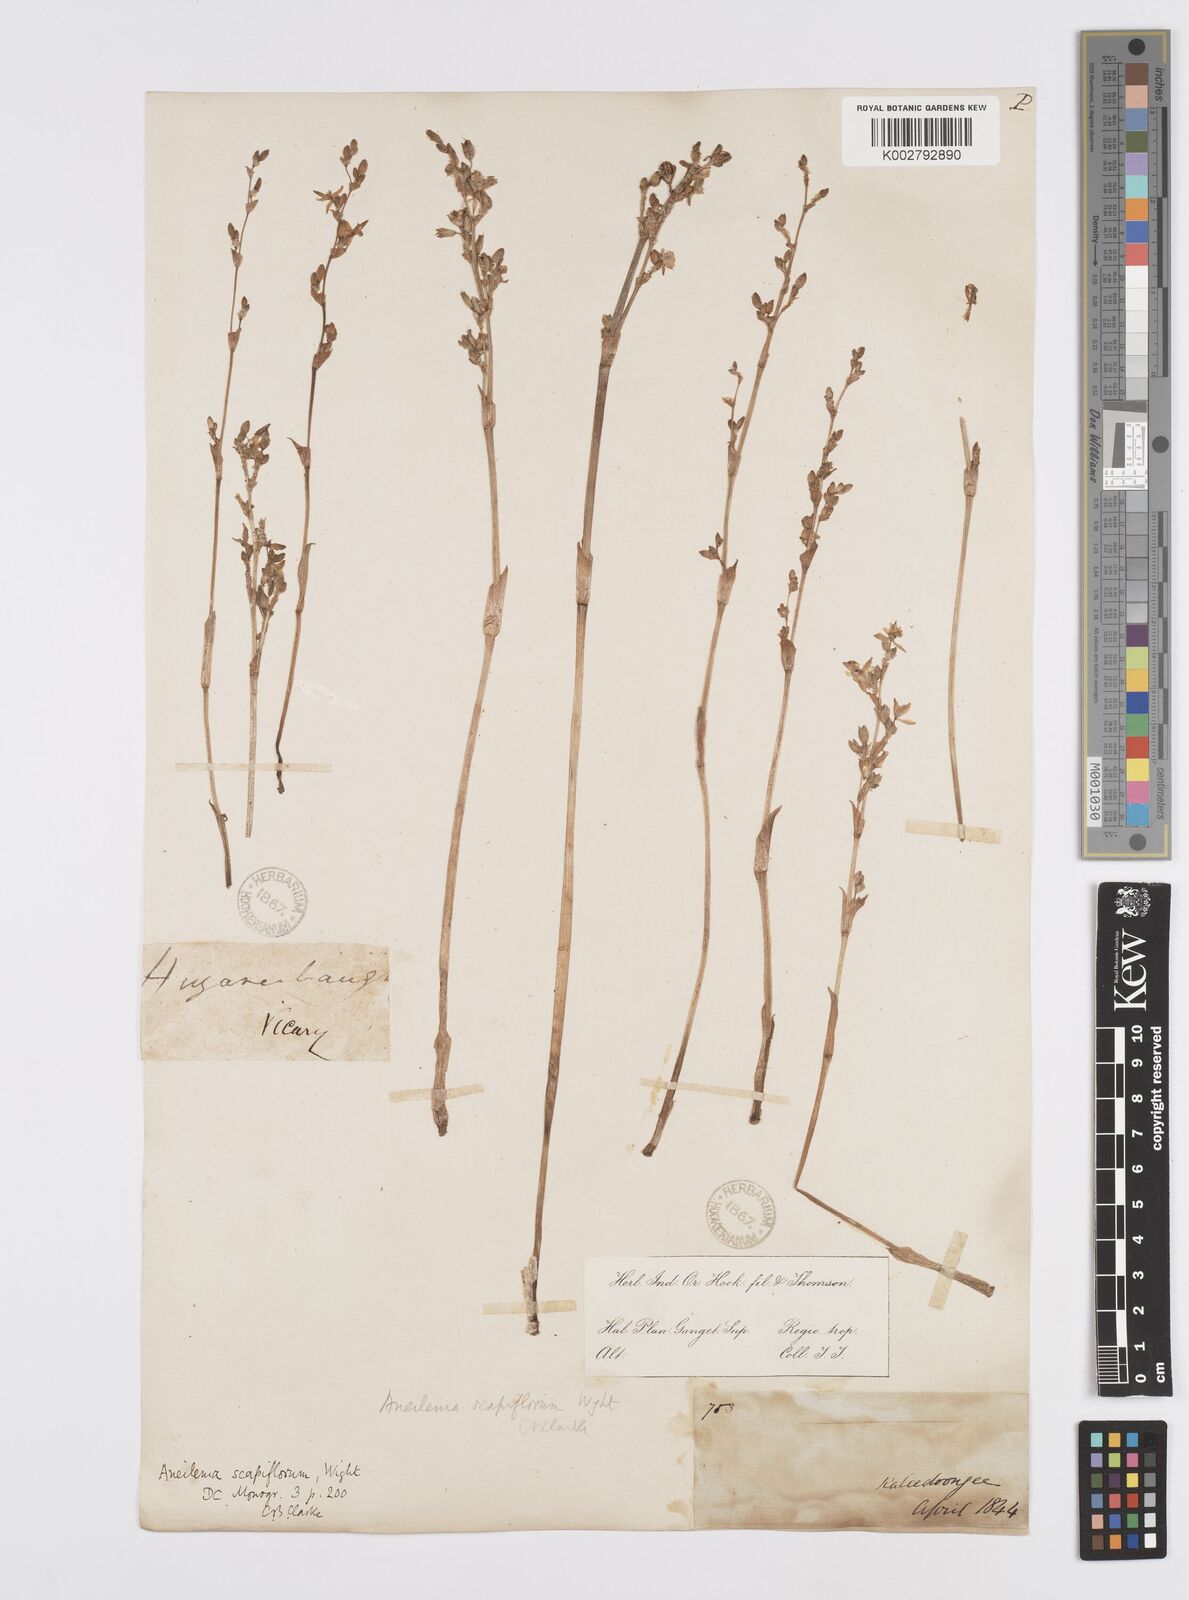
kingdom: Plantae
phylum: Tracheophyta
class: Liliopsida
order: Commelinales
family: Commelinaceae
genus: Murdannia
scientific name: Murdannia
